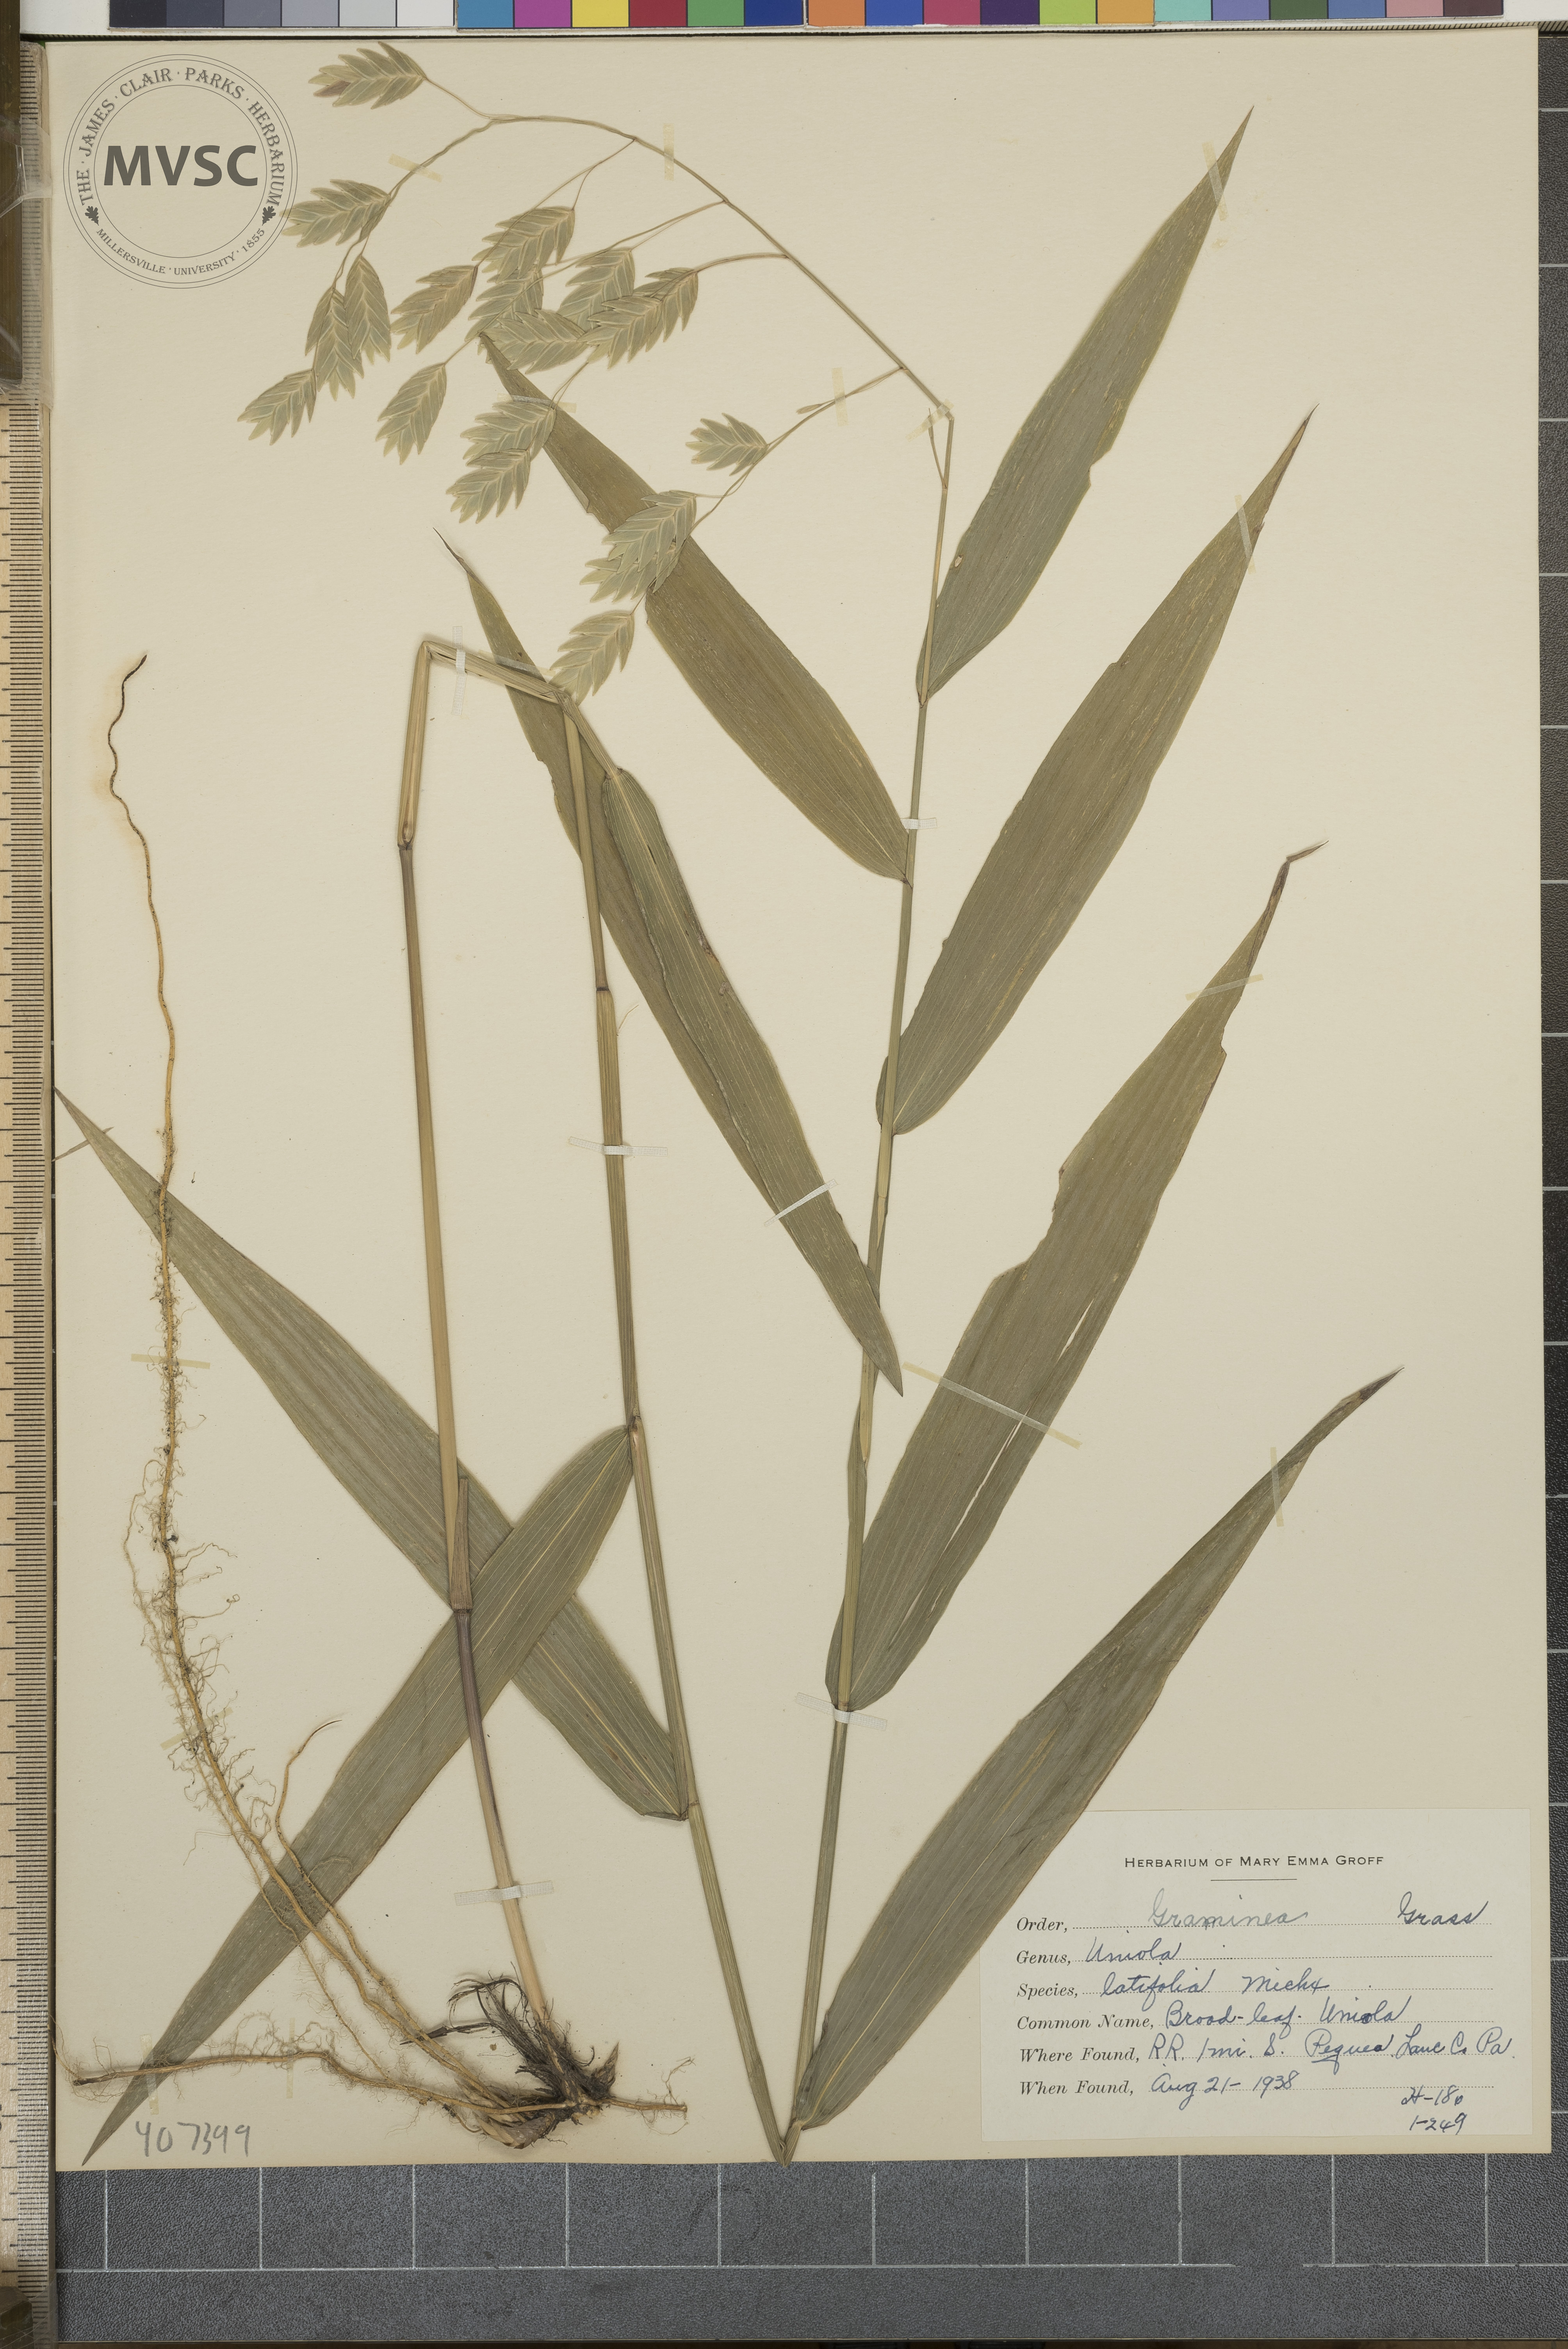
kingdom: Plantae
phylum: Tracheophyta
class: Liliopsida
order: Poales
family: Poaceae
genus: Chasmanthium
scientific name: Chasmanthium latifolium
